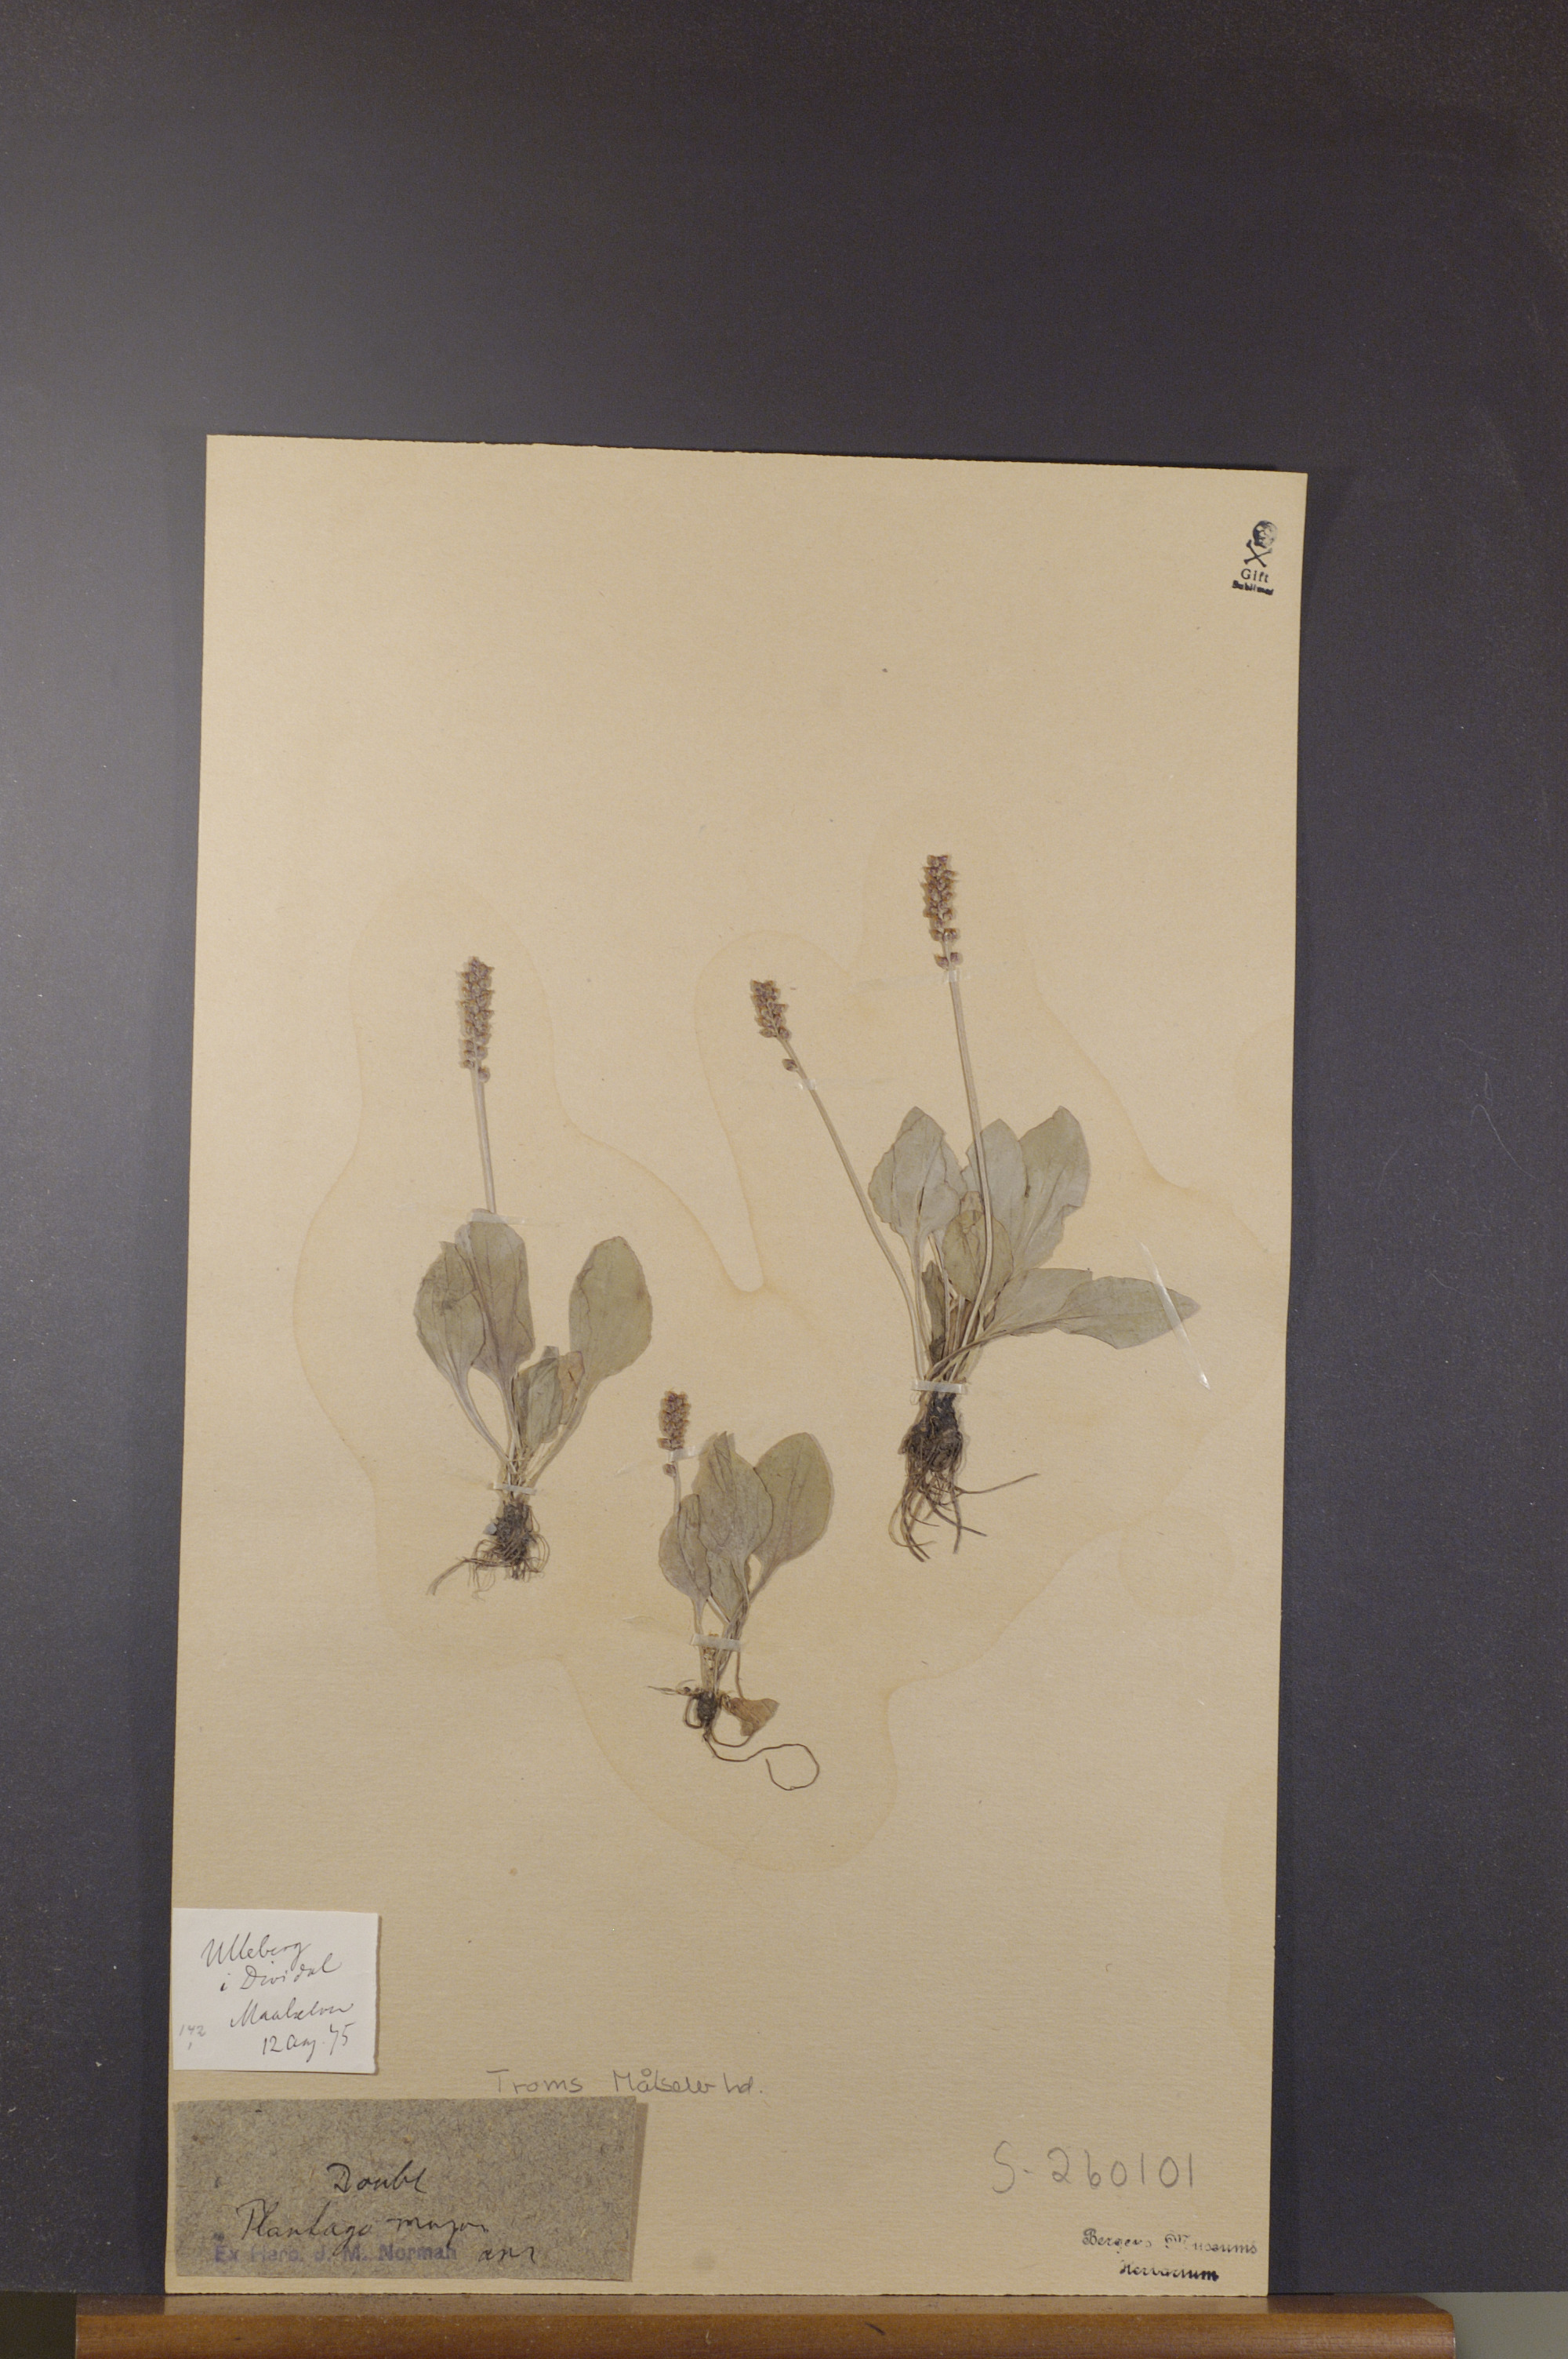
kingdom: Plantae
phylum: Tracheophyta
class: Magnoliopsida
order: Lamiales
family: Plantaginaceae
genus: Plantago
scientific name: Plantago major
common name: Common plantain
